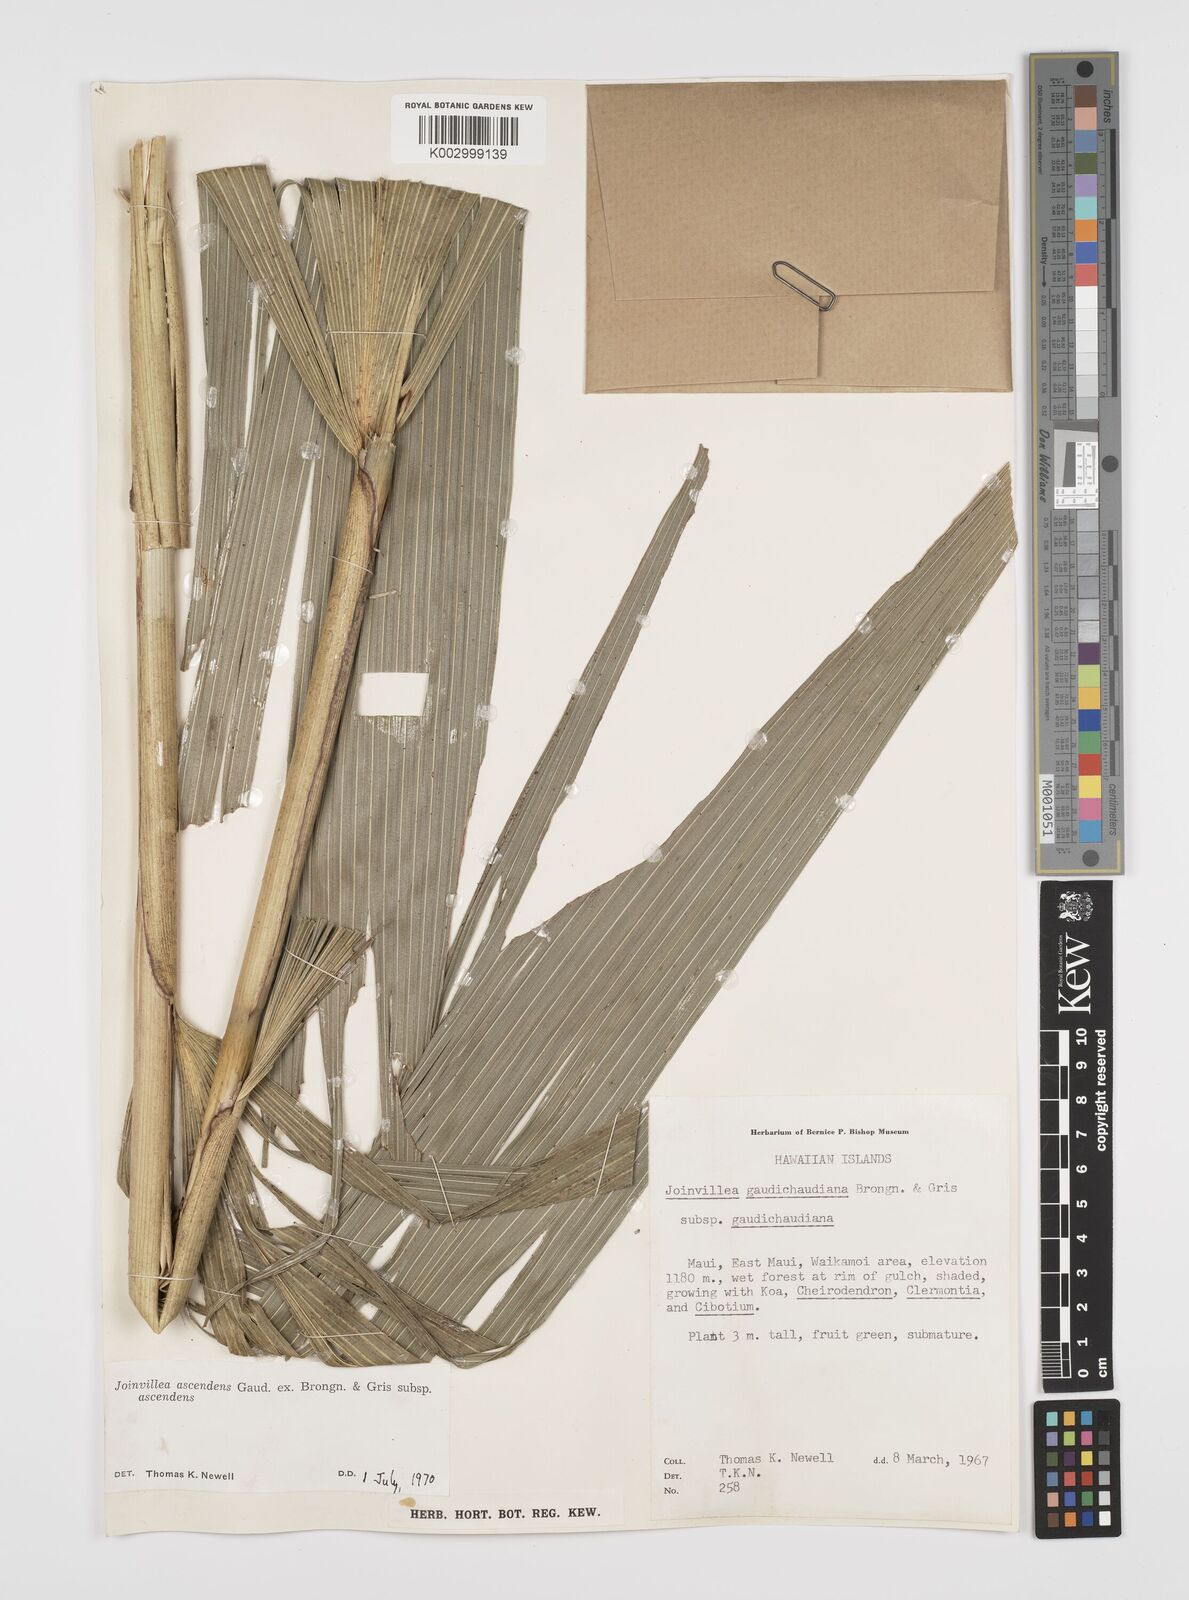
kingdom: Plantae
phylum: Tracheophyta
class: Liliopsida
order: Poales
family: Joinvilleaceae
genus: Joinvillea
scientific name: Joinvillea ascendens
